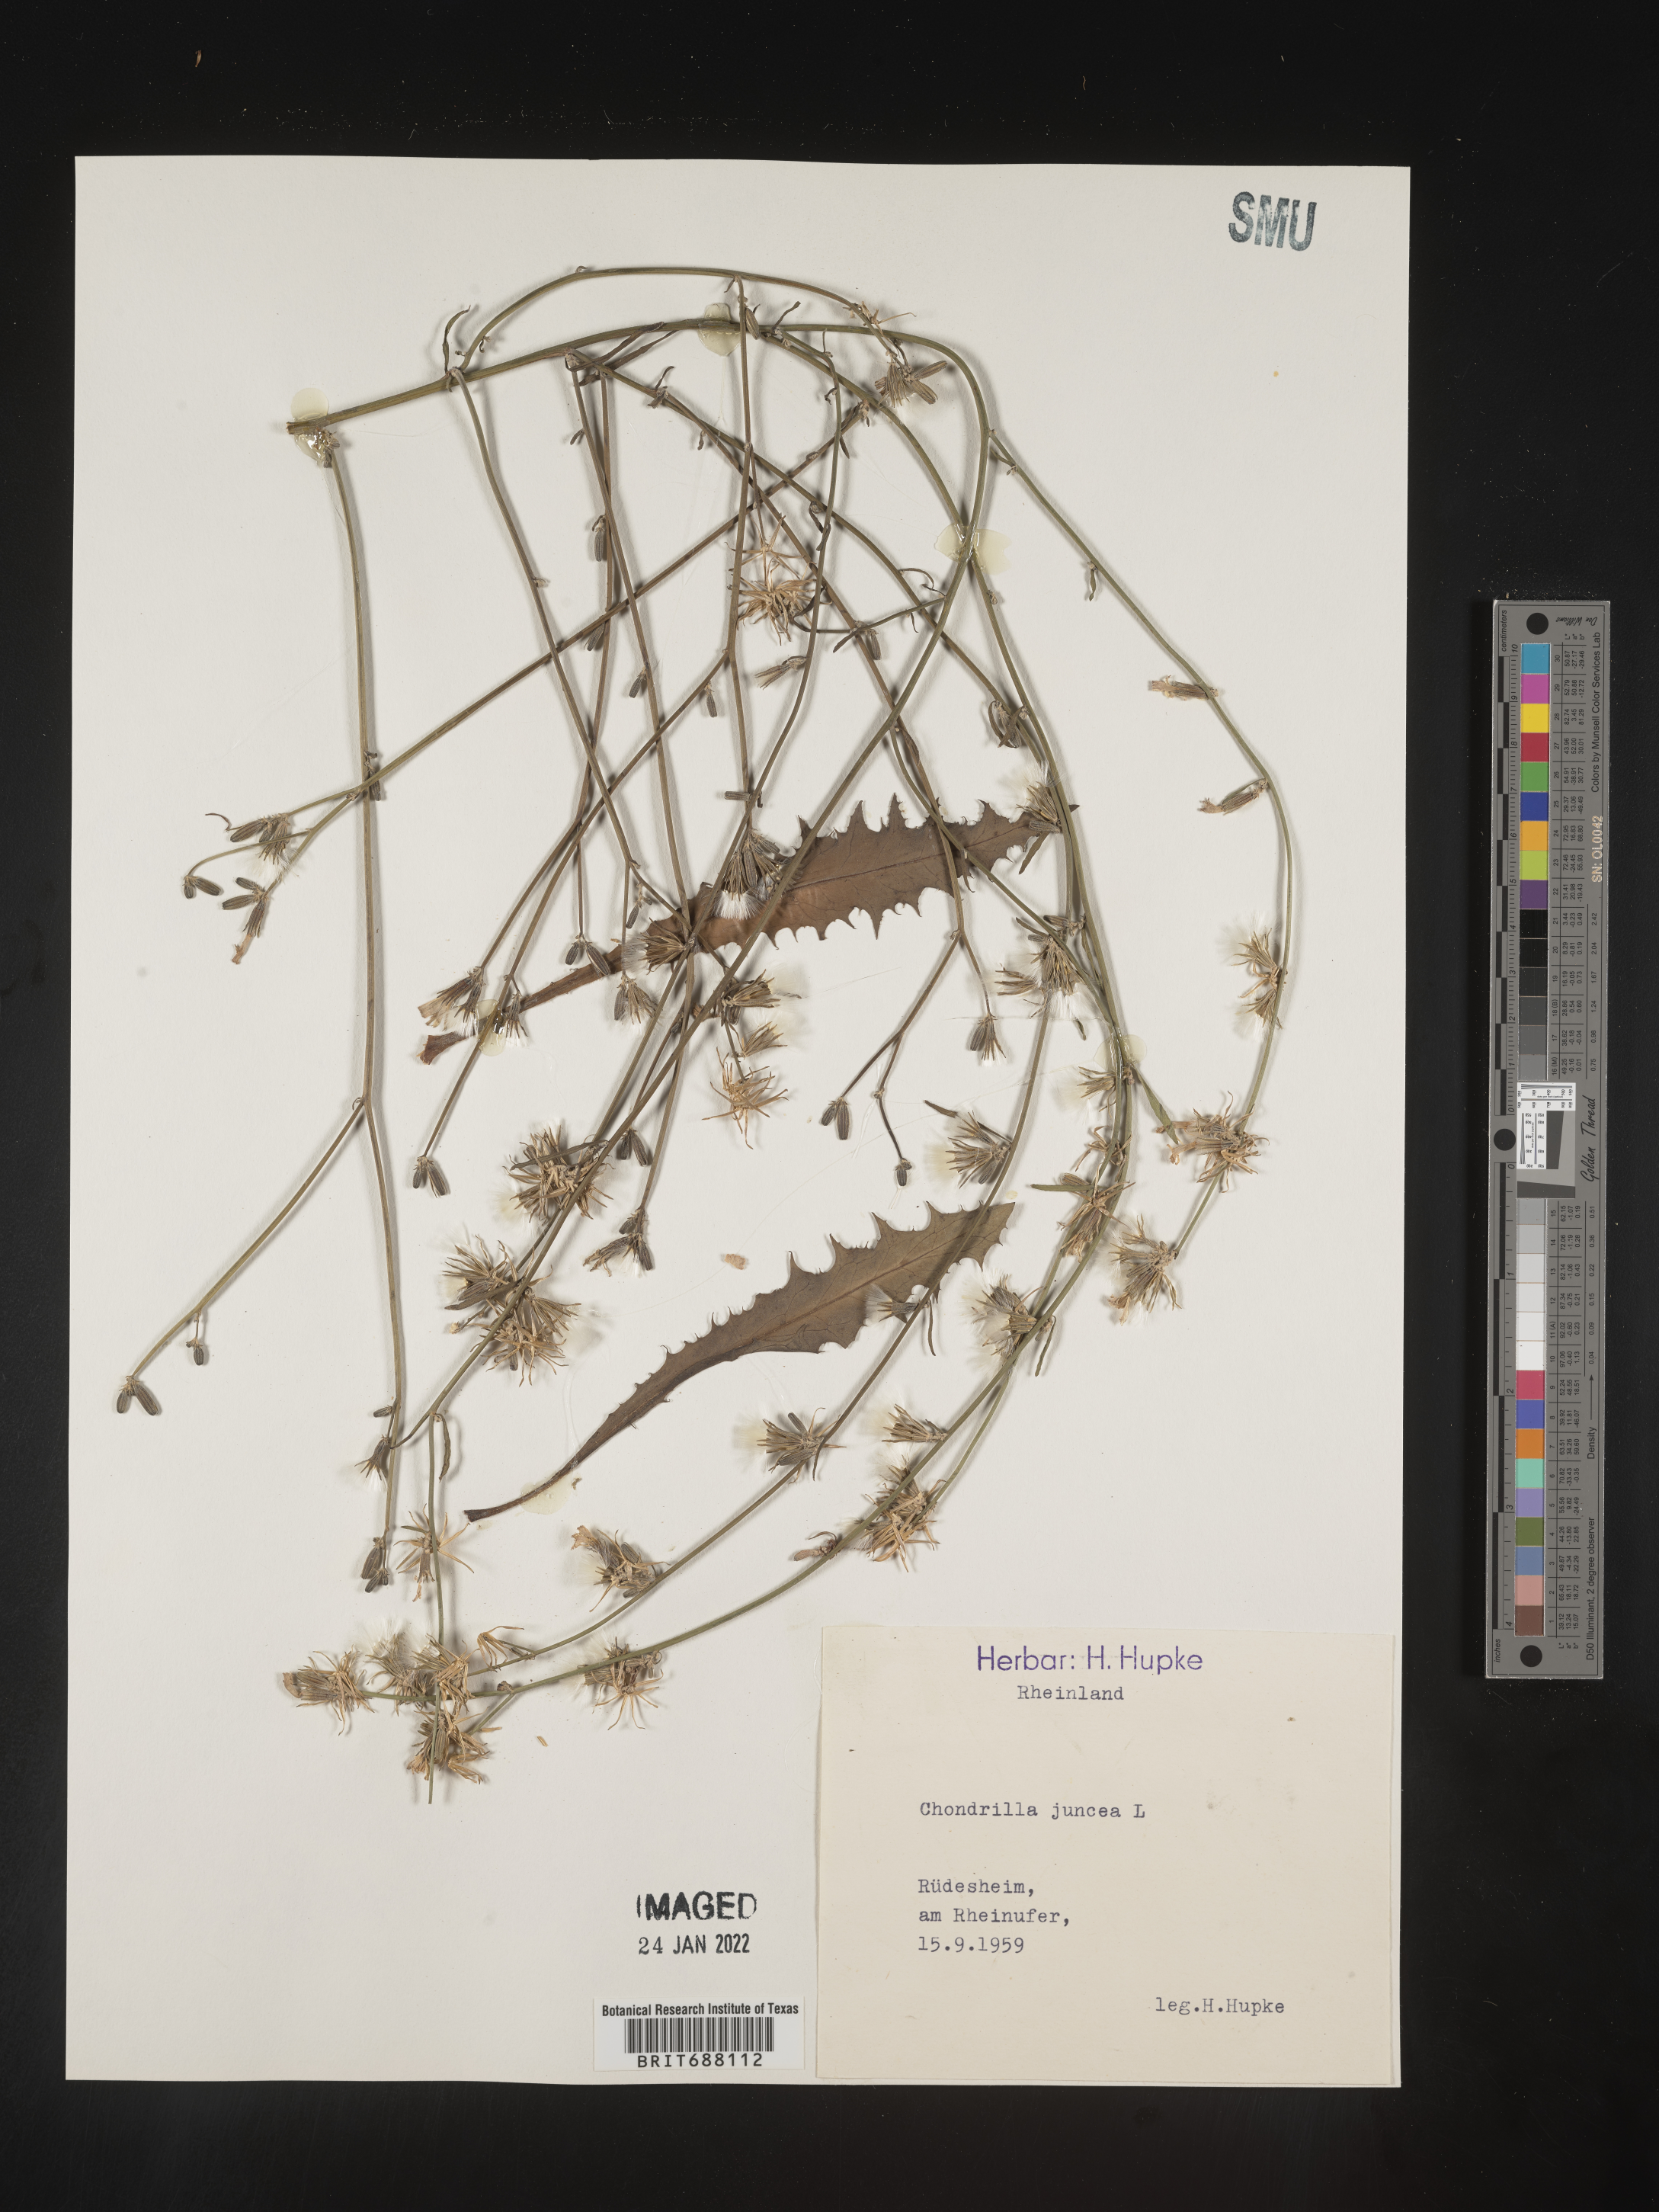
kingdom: Plantae
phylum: Tracheophyta
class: Magnoliopsida
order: Asterales
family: Asteraceae
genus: Chondrilla
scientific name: Chondrilla
